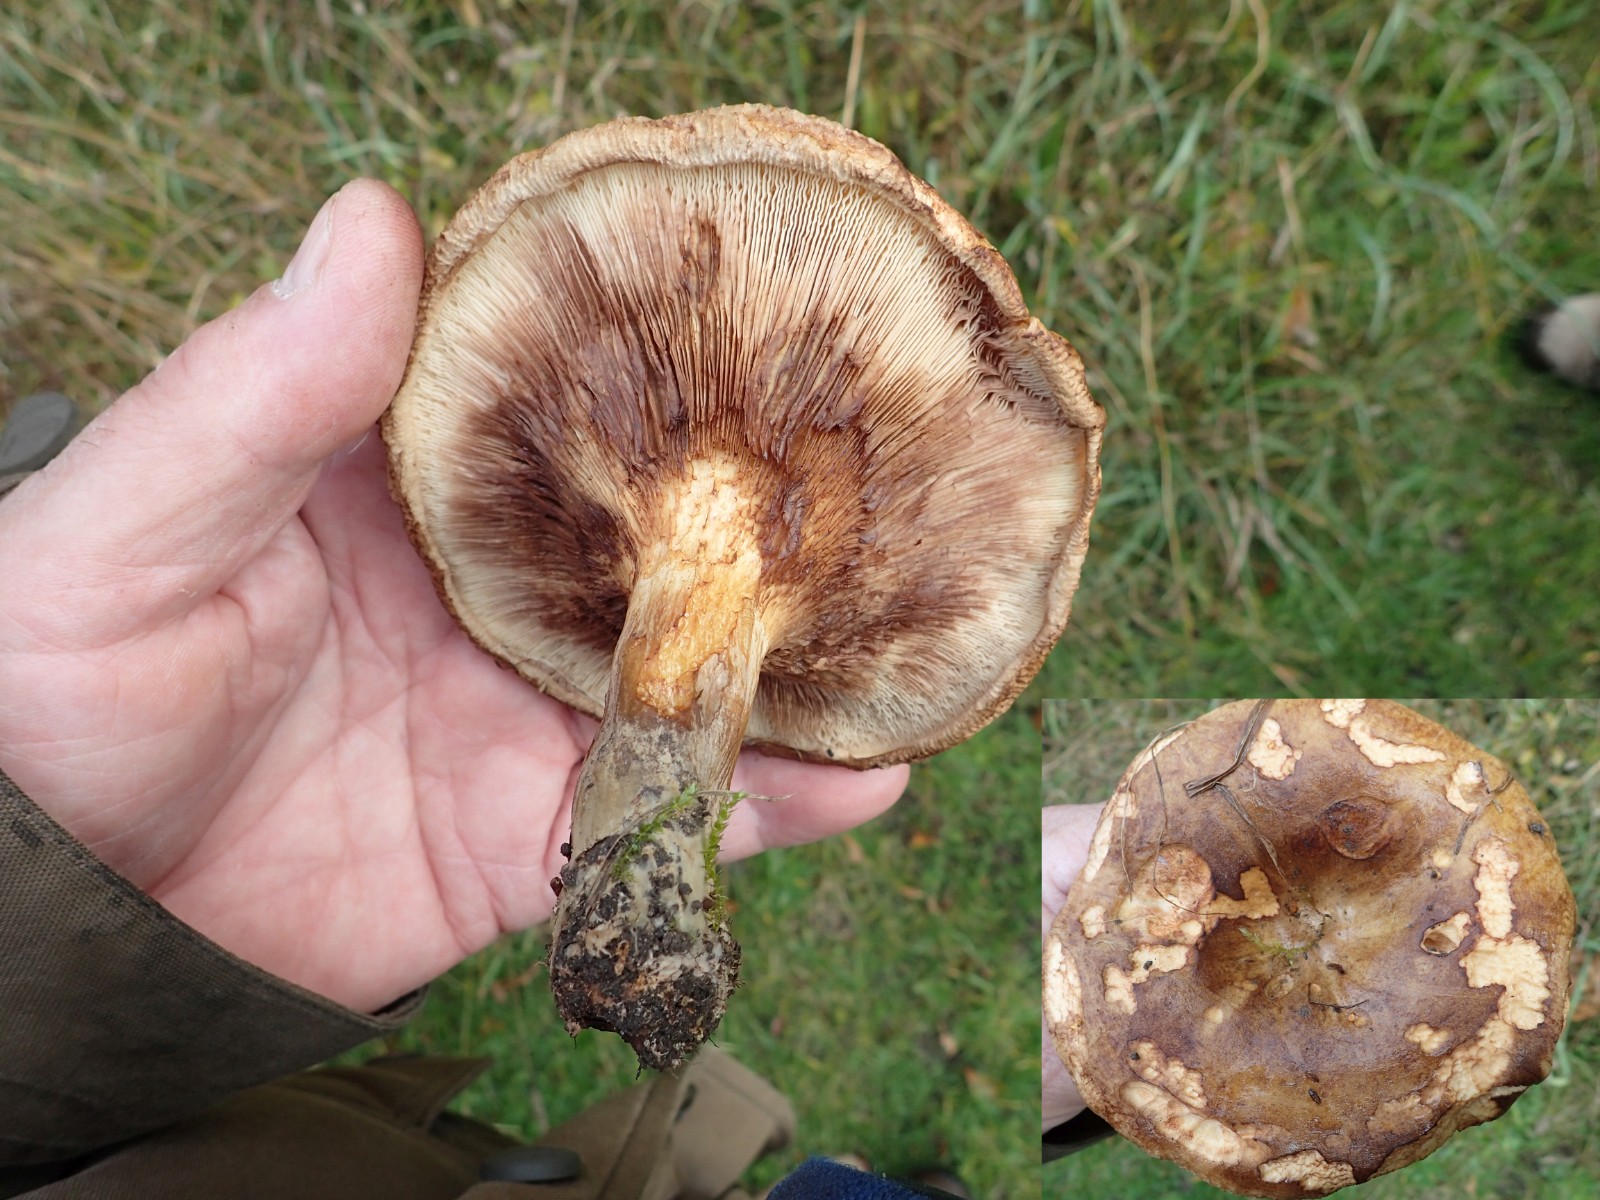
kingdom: Fungi
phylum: Basidiomycota
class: Agaricomycetes
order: Boletales
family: Paxillaceae
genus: Paxillus
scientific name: Paxillus involutus
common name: almindelig netbladhat
